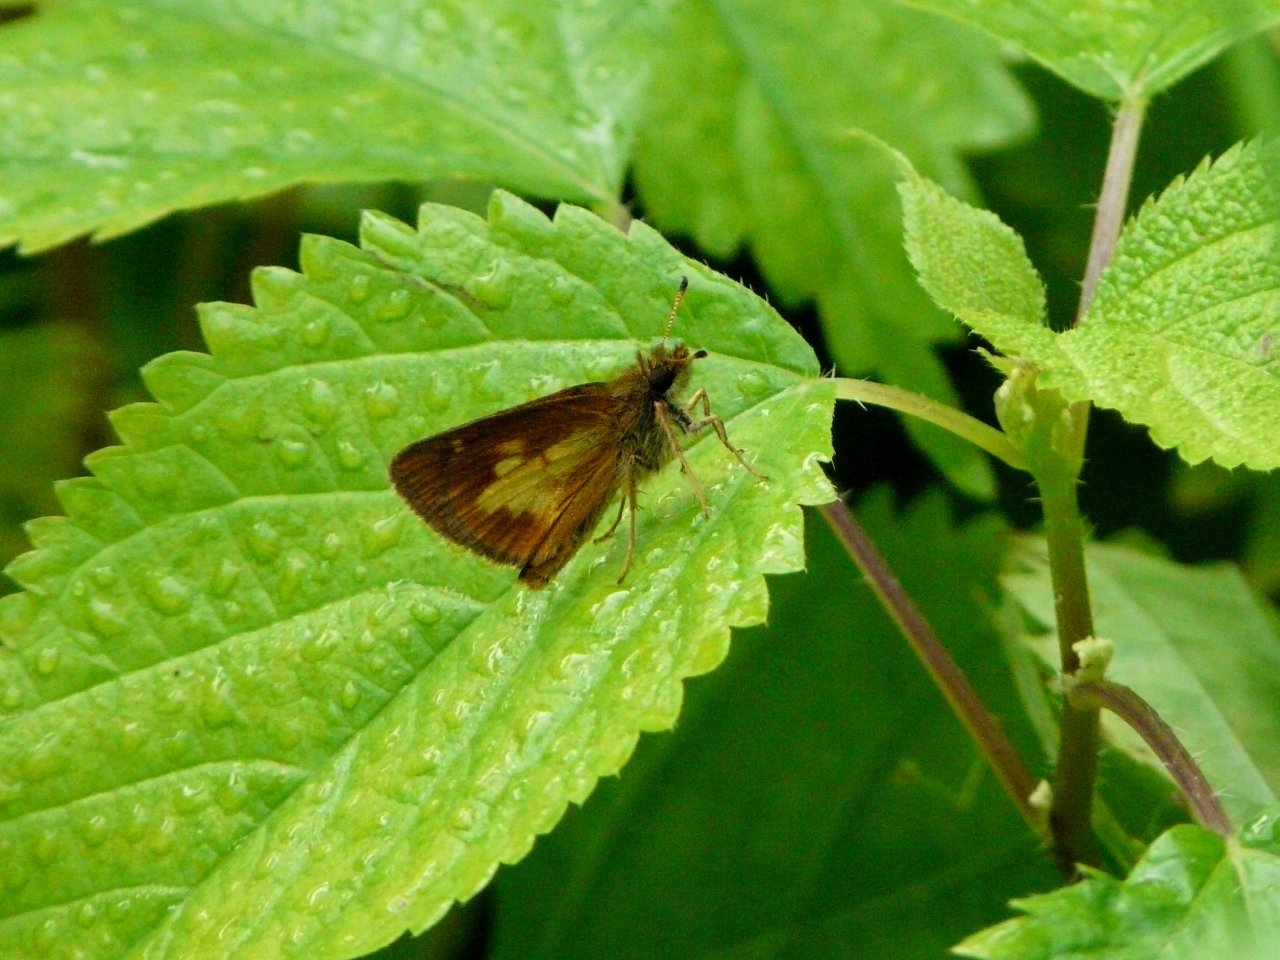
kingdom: Animalia
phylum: Arthropoda
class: Insecta
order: Lepidoptera
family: Hesperiidae
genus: Poanes
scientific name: Poanes massasoit
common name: Mulberry Wing
